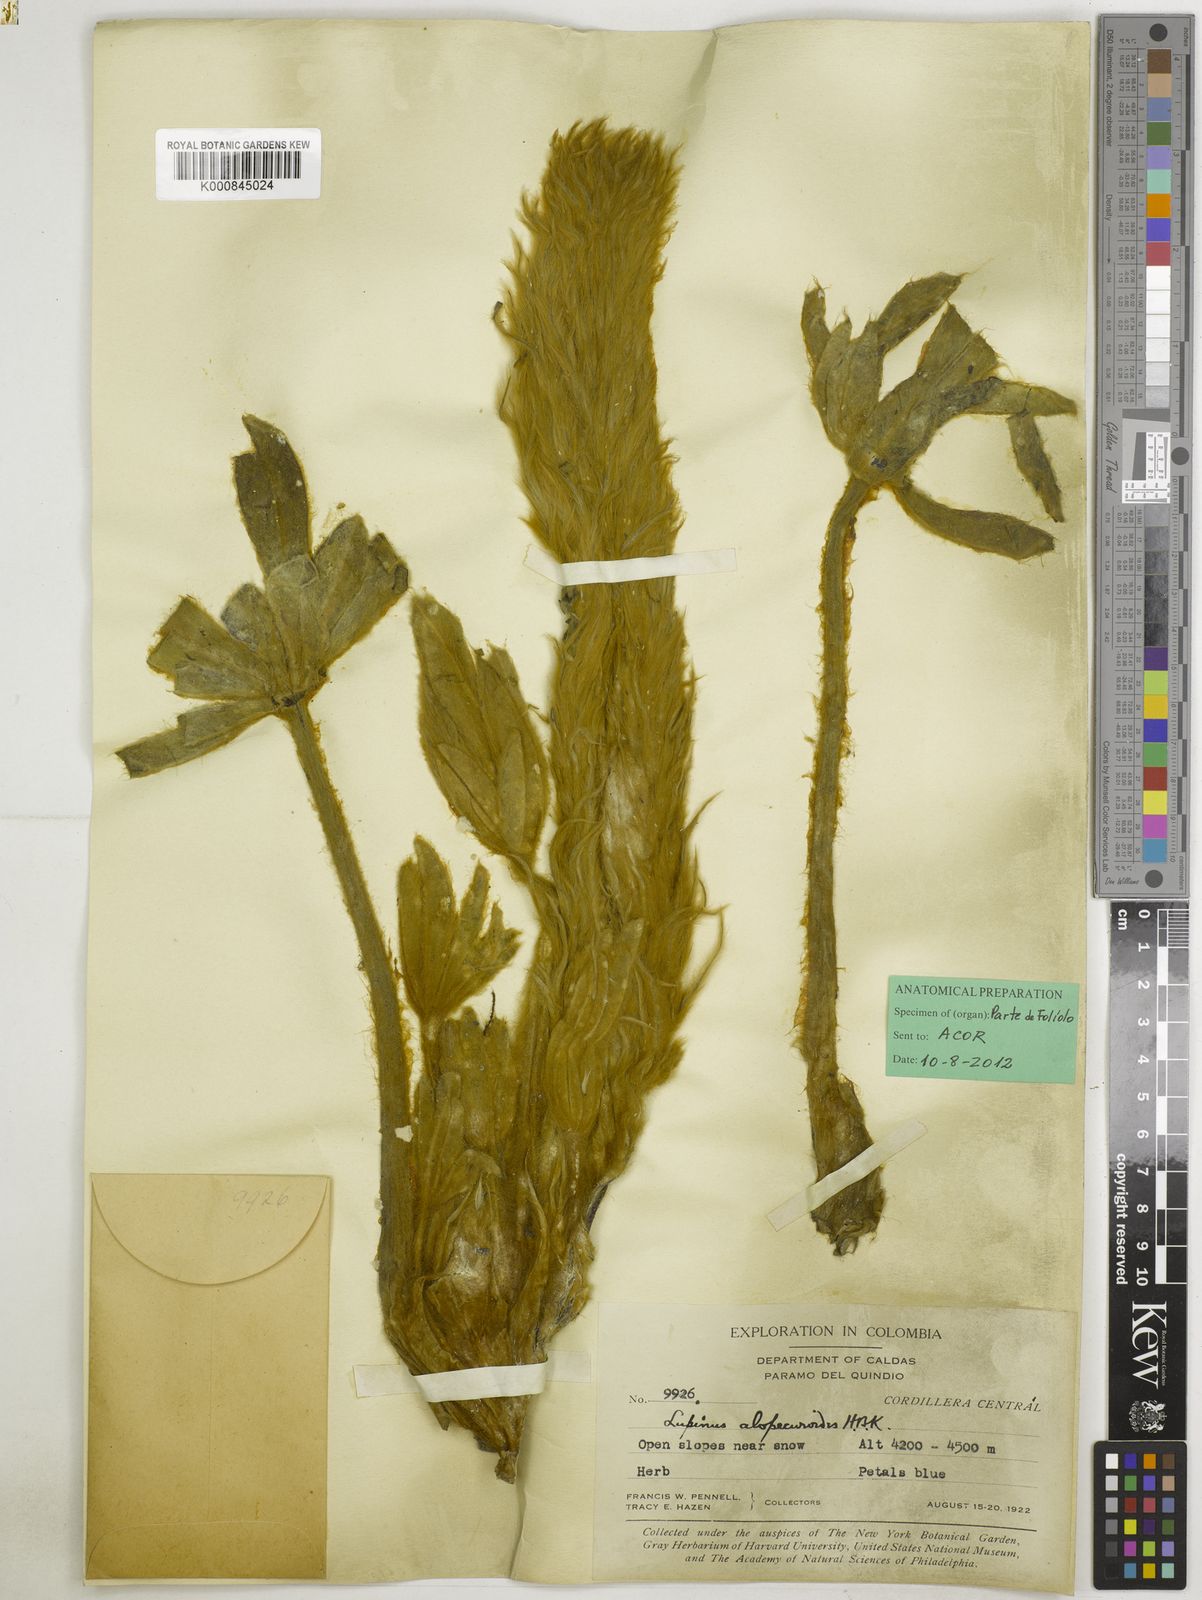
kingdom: Plantae
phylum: Tracheophyta
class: Magnoliopsida
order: Fabales
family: Fabaceae
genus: Lupinus
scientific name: Lupinus
